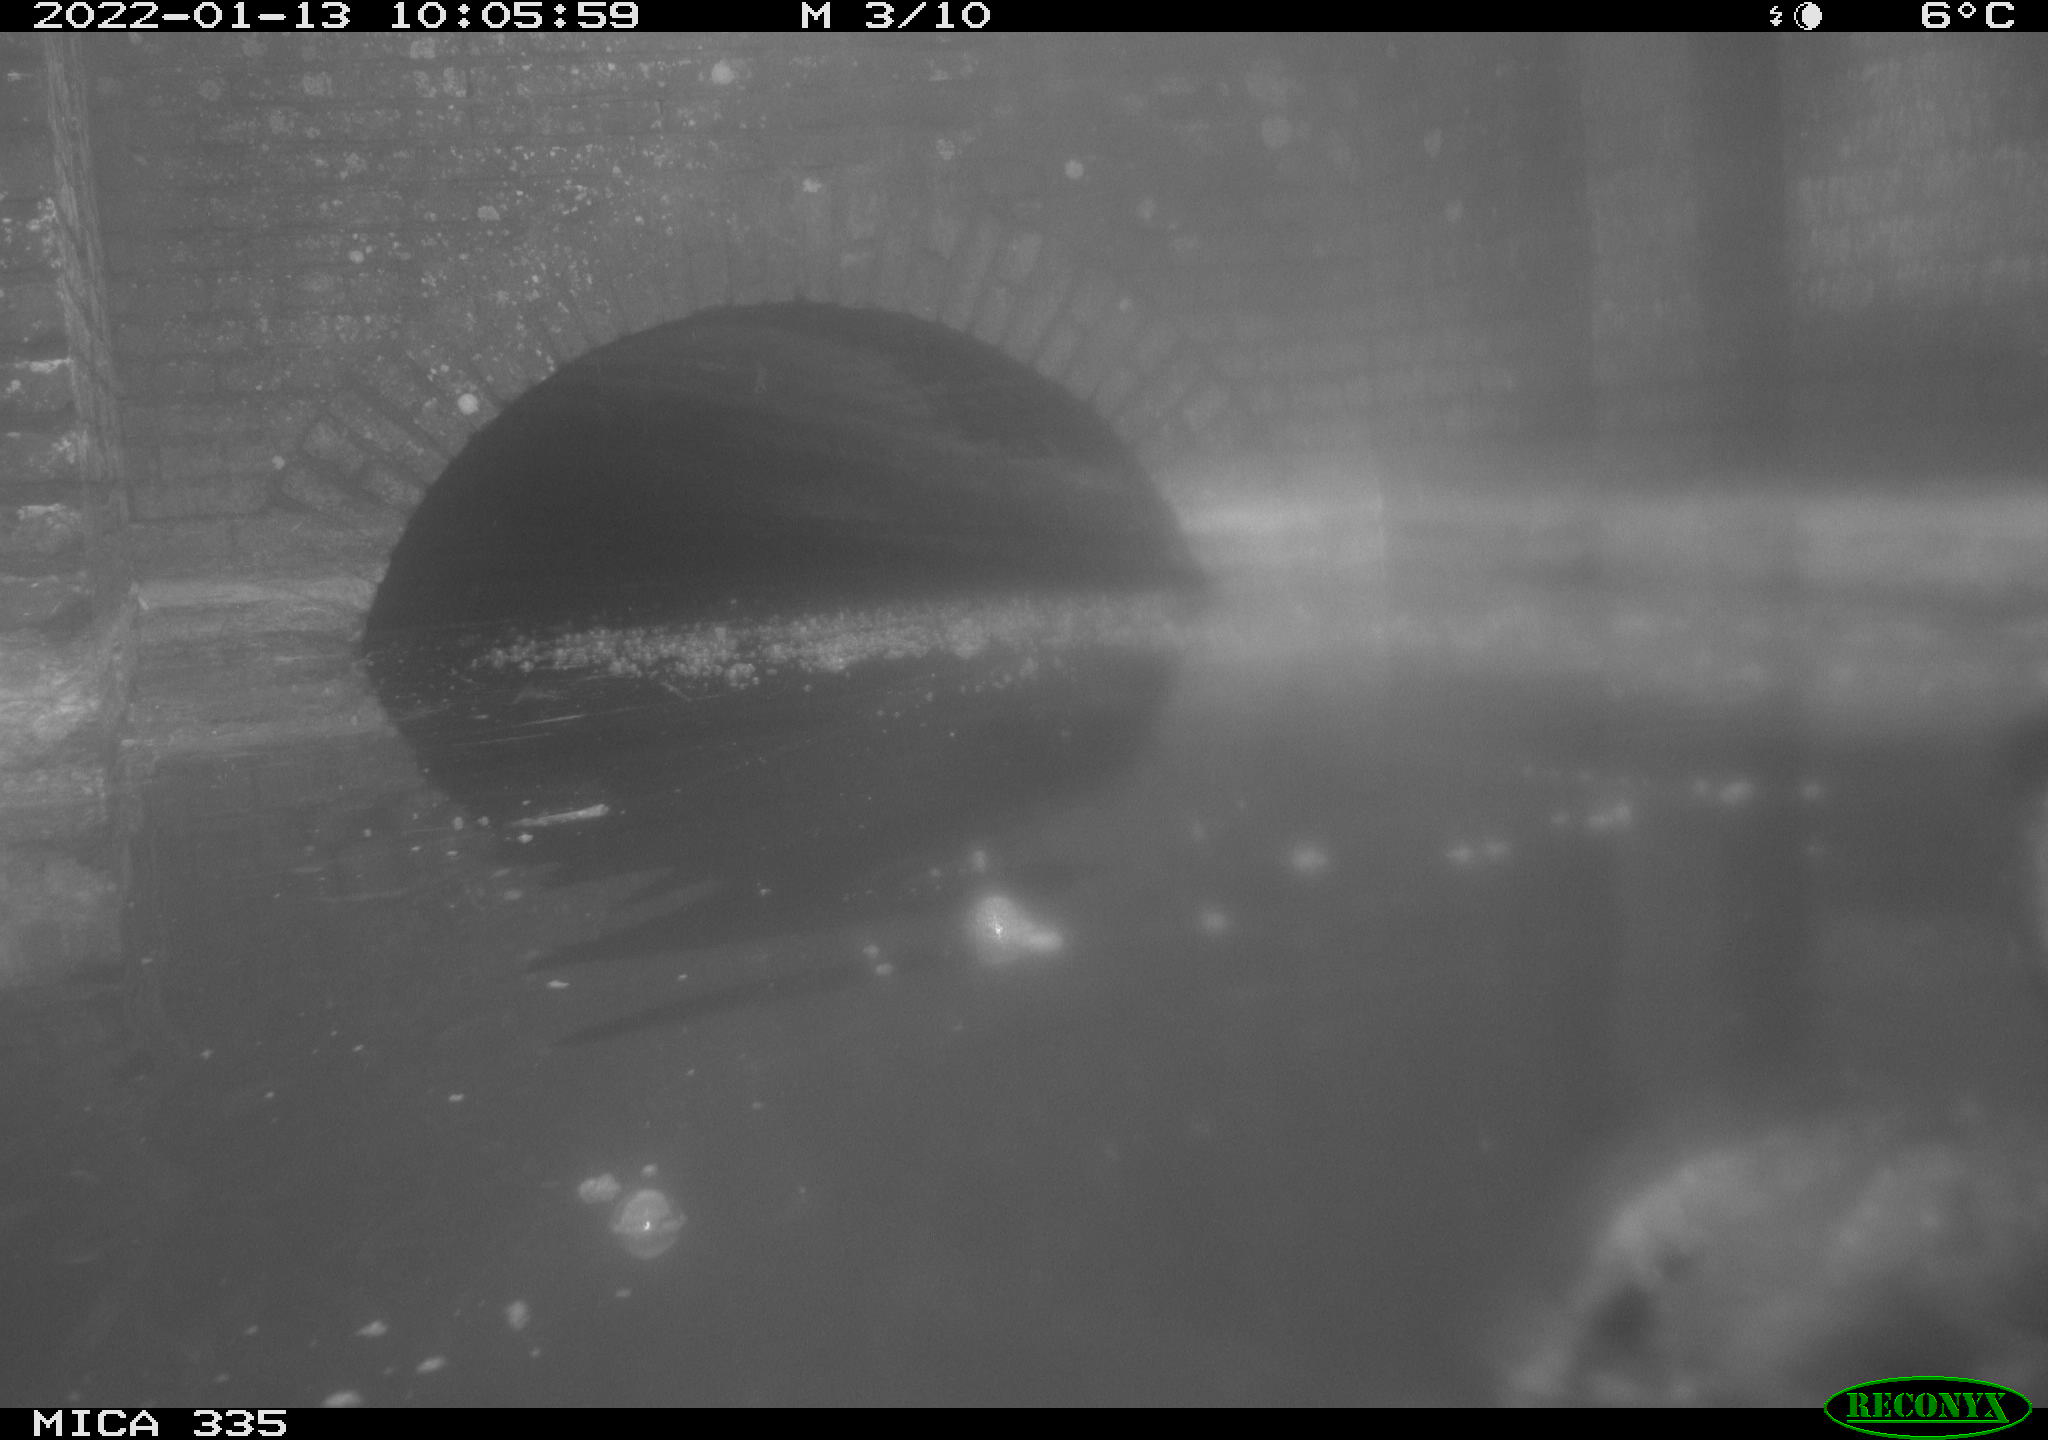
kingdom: Animalia
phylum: Chordata
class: Aves
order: Suliformes
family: Phalacrocoracidae
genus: Phalacrocorax
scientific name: Phalacrocorax carbo
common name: Great cormorant
